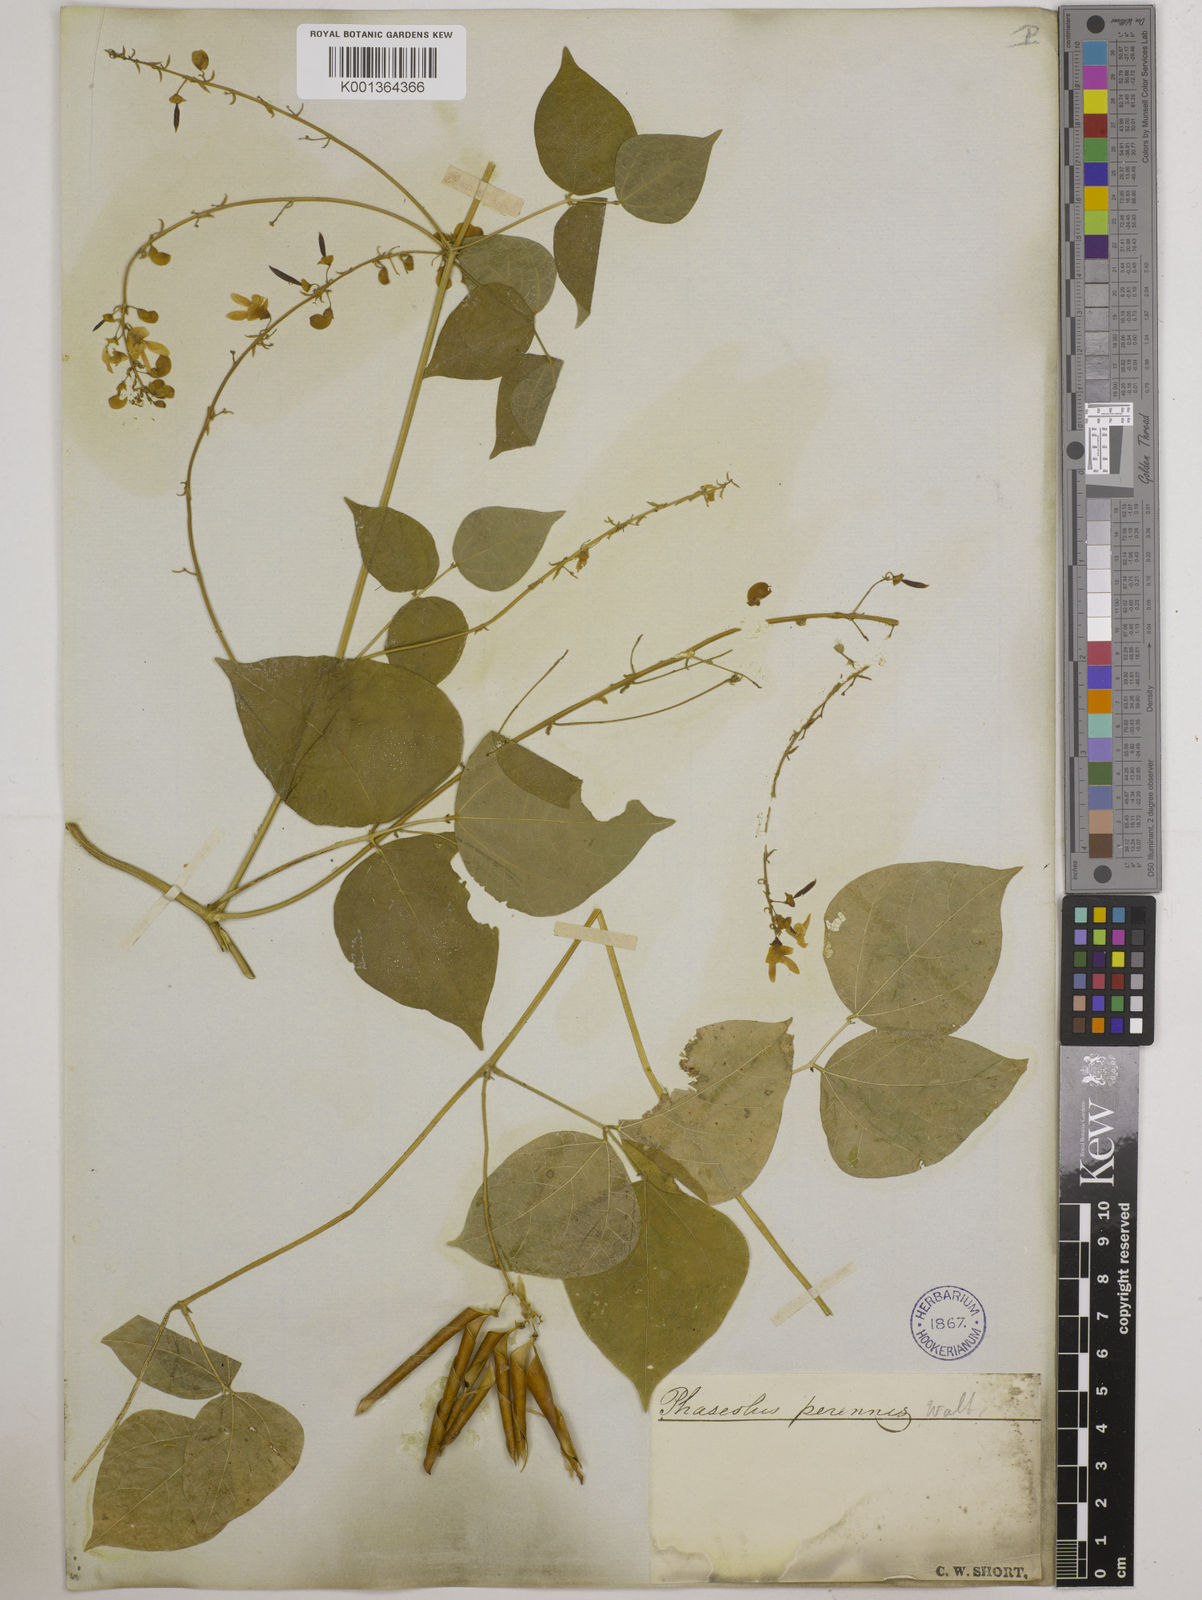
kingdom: Plantae
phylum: Tracheophyta
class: Magnoliopsida
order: Fabales
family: Fabaceae
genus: Phaseolus
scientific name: Phaseolus
